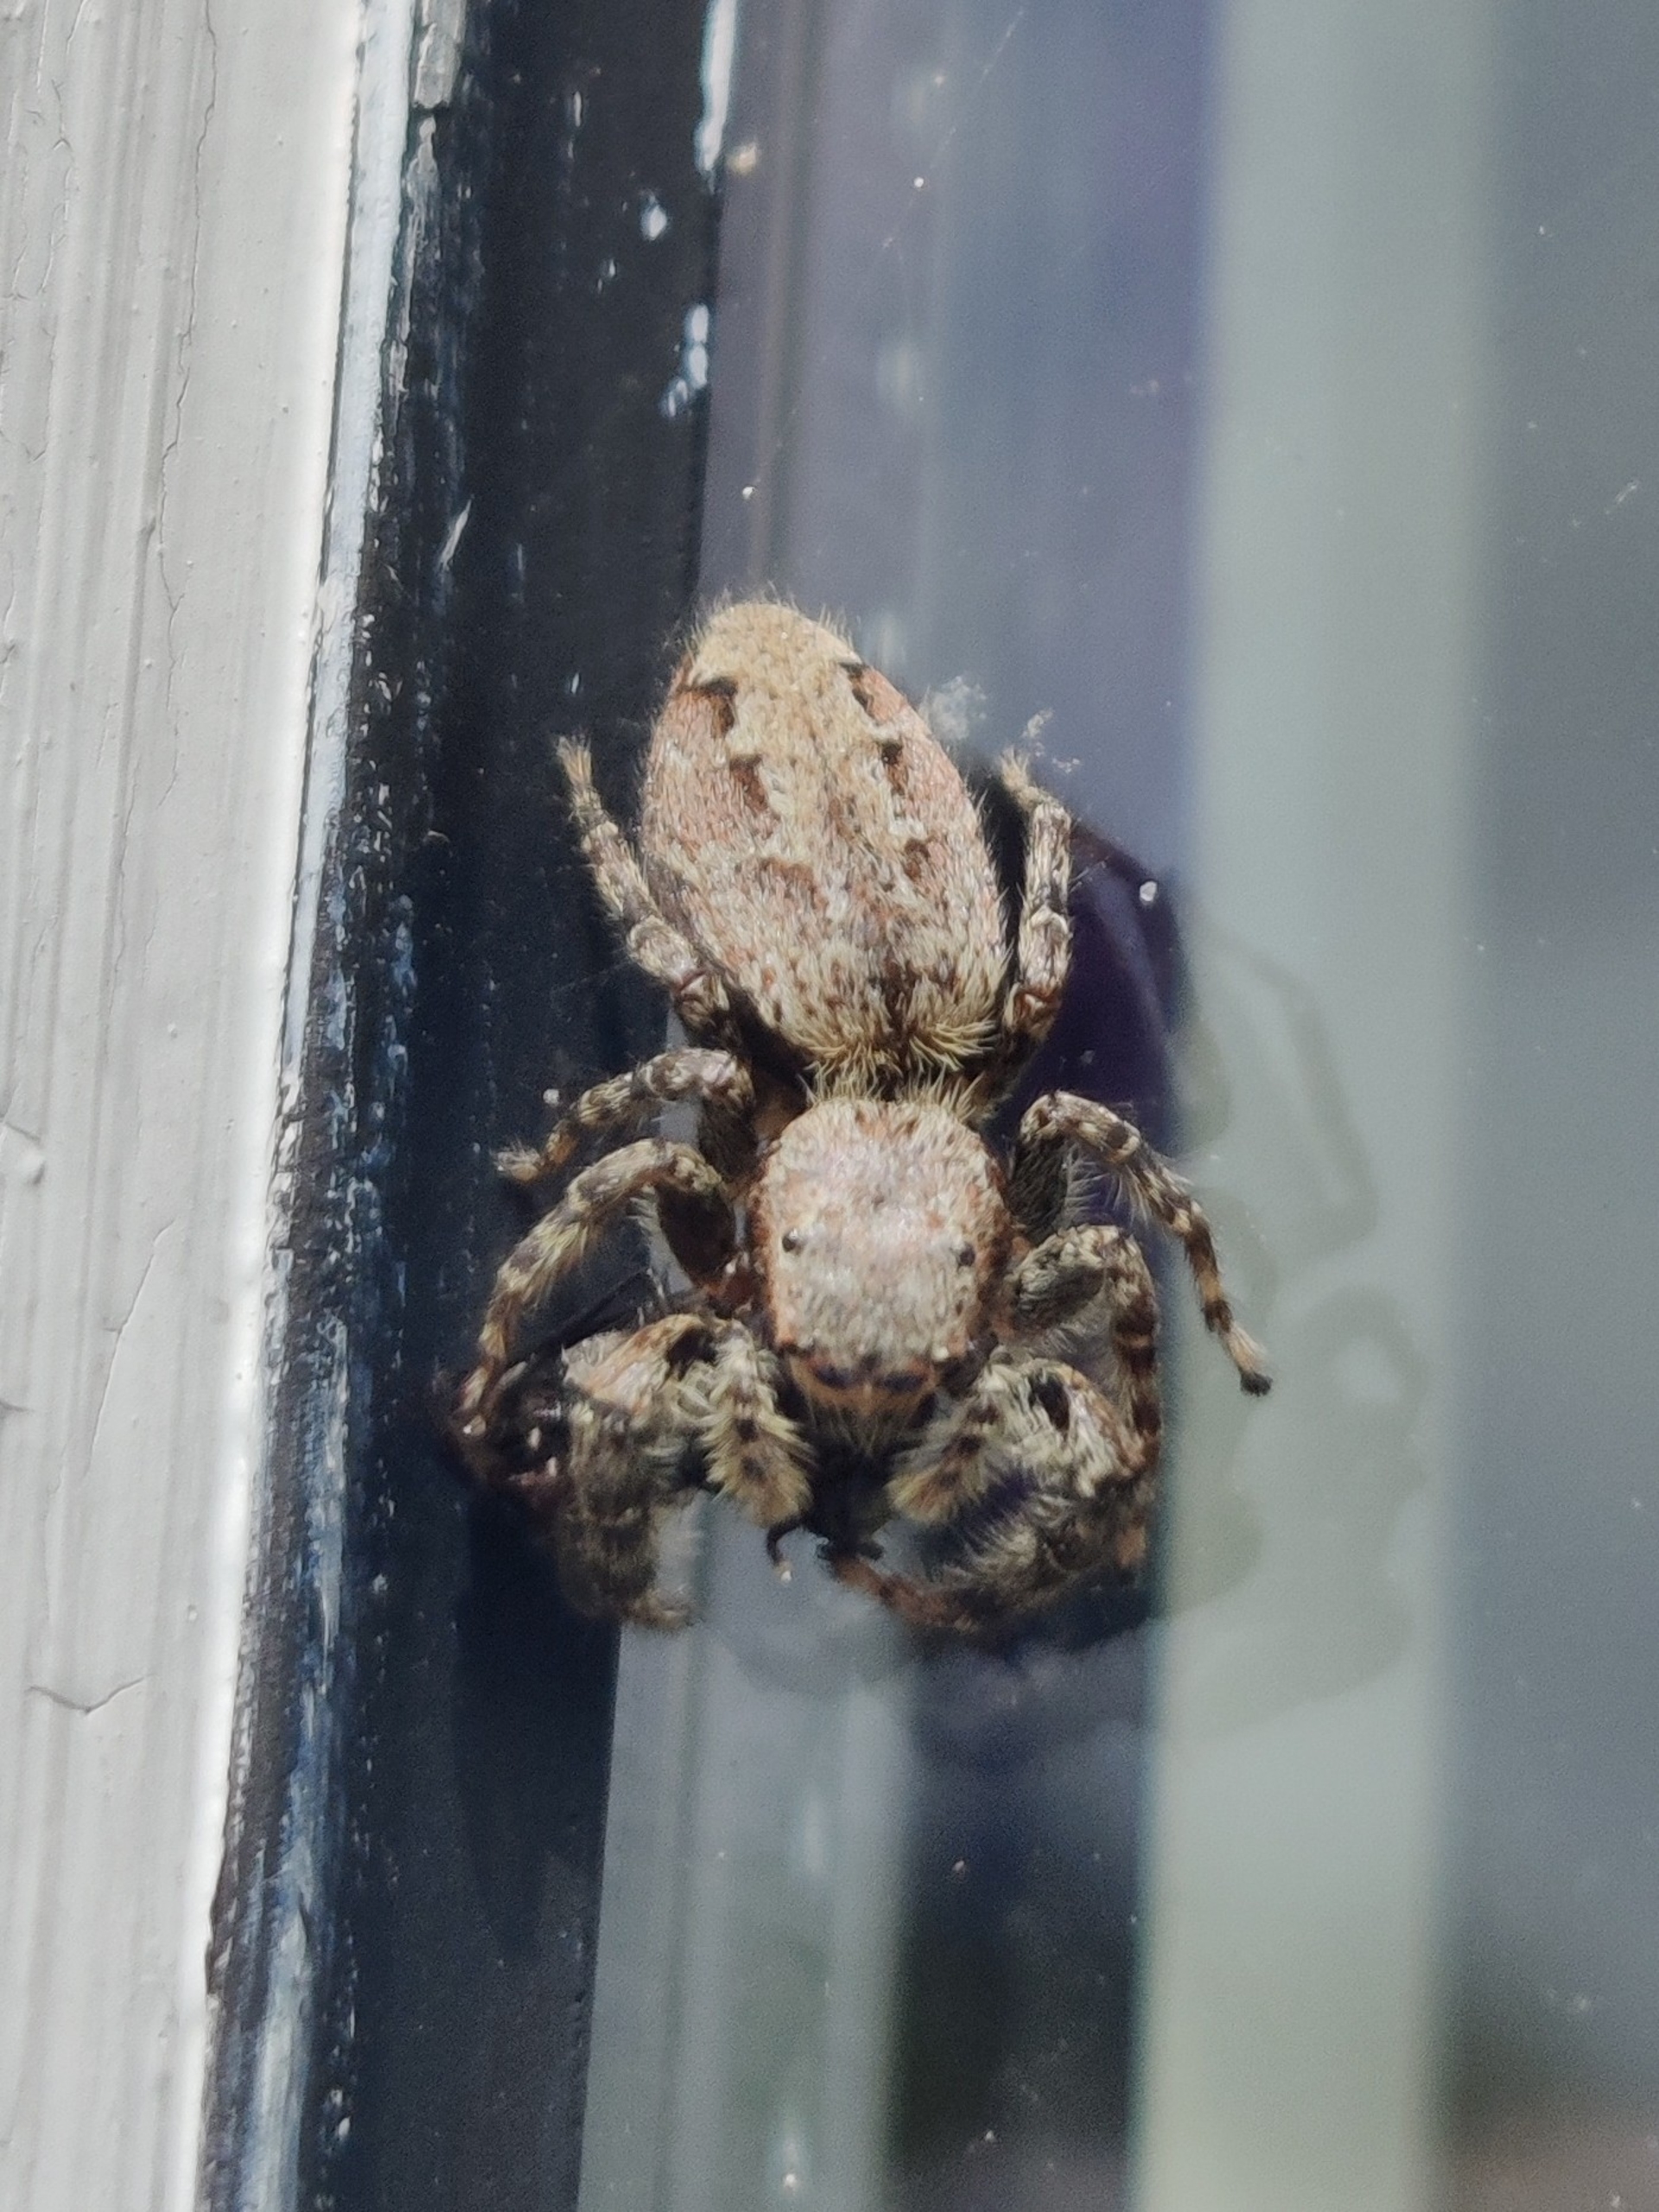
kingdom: Animalia
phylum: Arthropoda
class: Arachnida
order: Araneae
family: Salticidae
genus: Marpissa
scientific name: Marpissa muscosa
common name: Stor springedderkop
